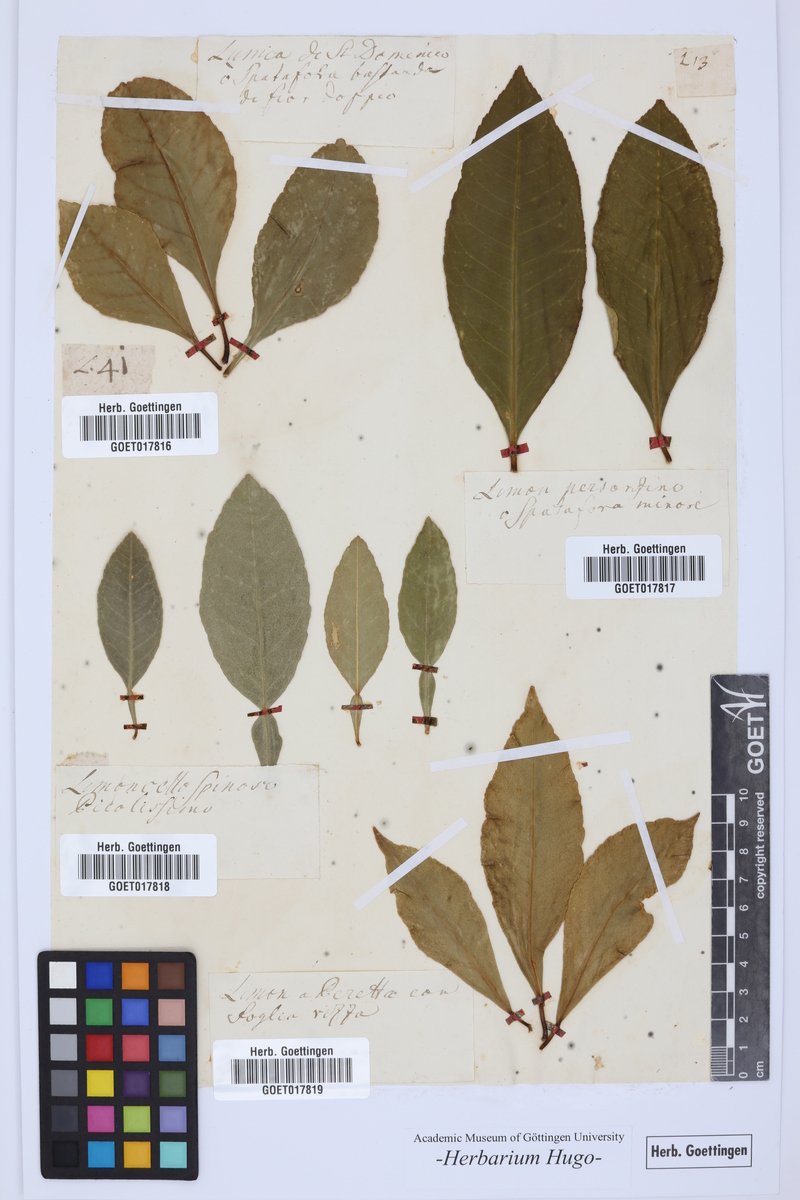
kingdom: Plantae
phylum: Tracheophyta
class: Magnoliopsida
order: Sapindales
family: Rutaceae
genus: Citrus
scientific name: Citrus
